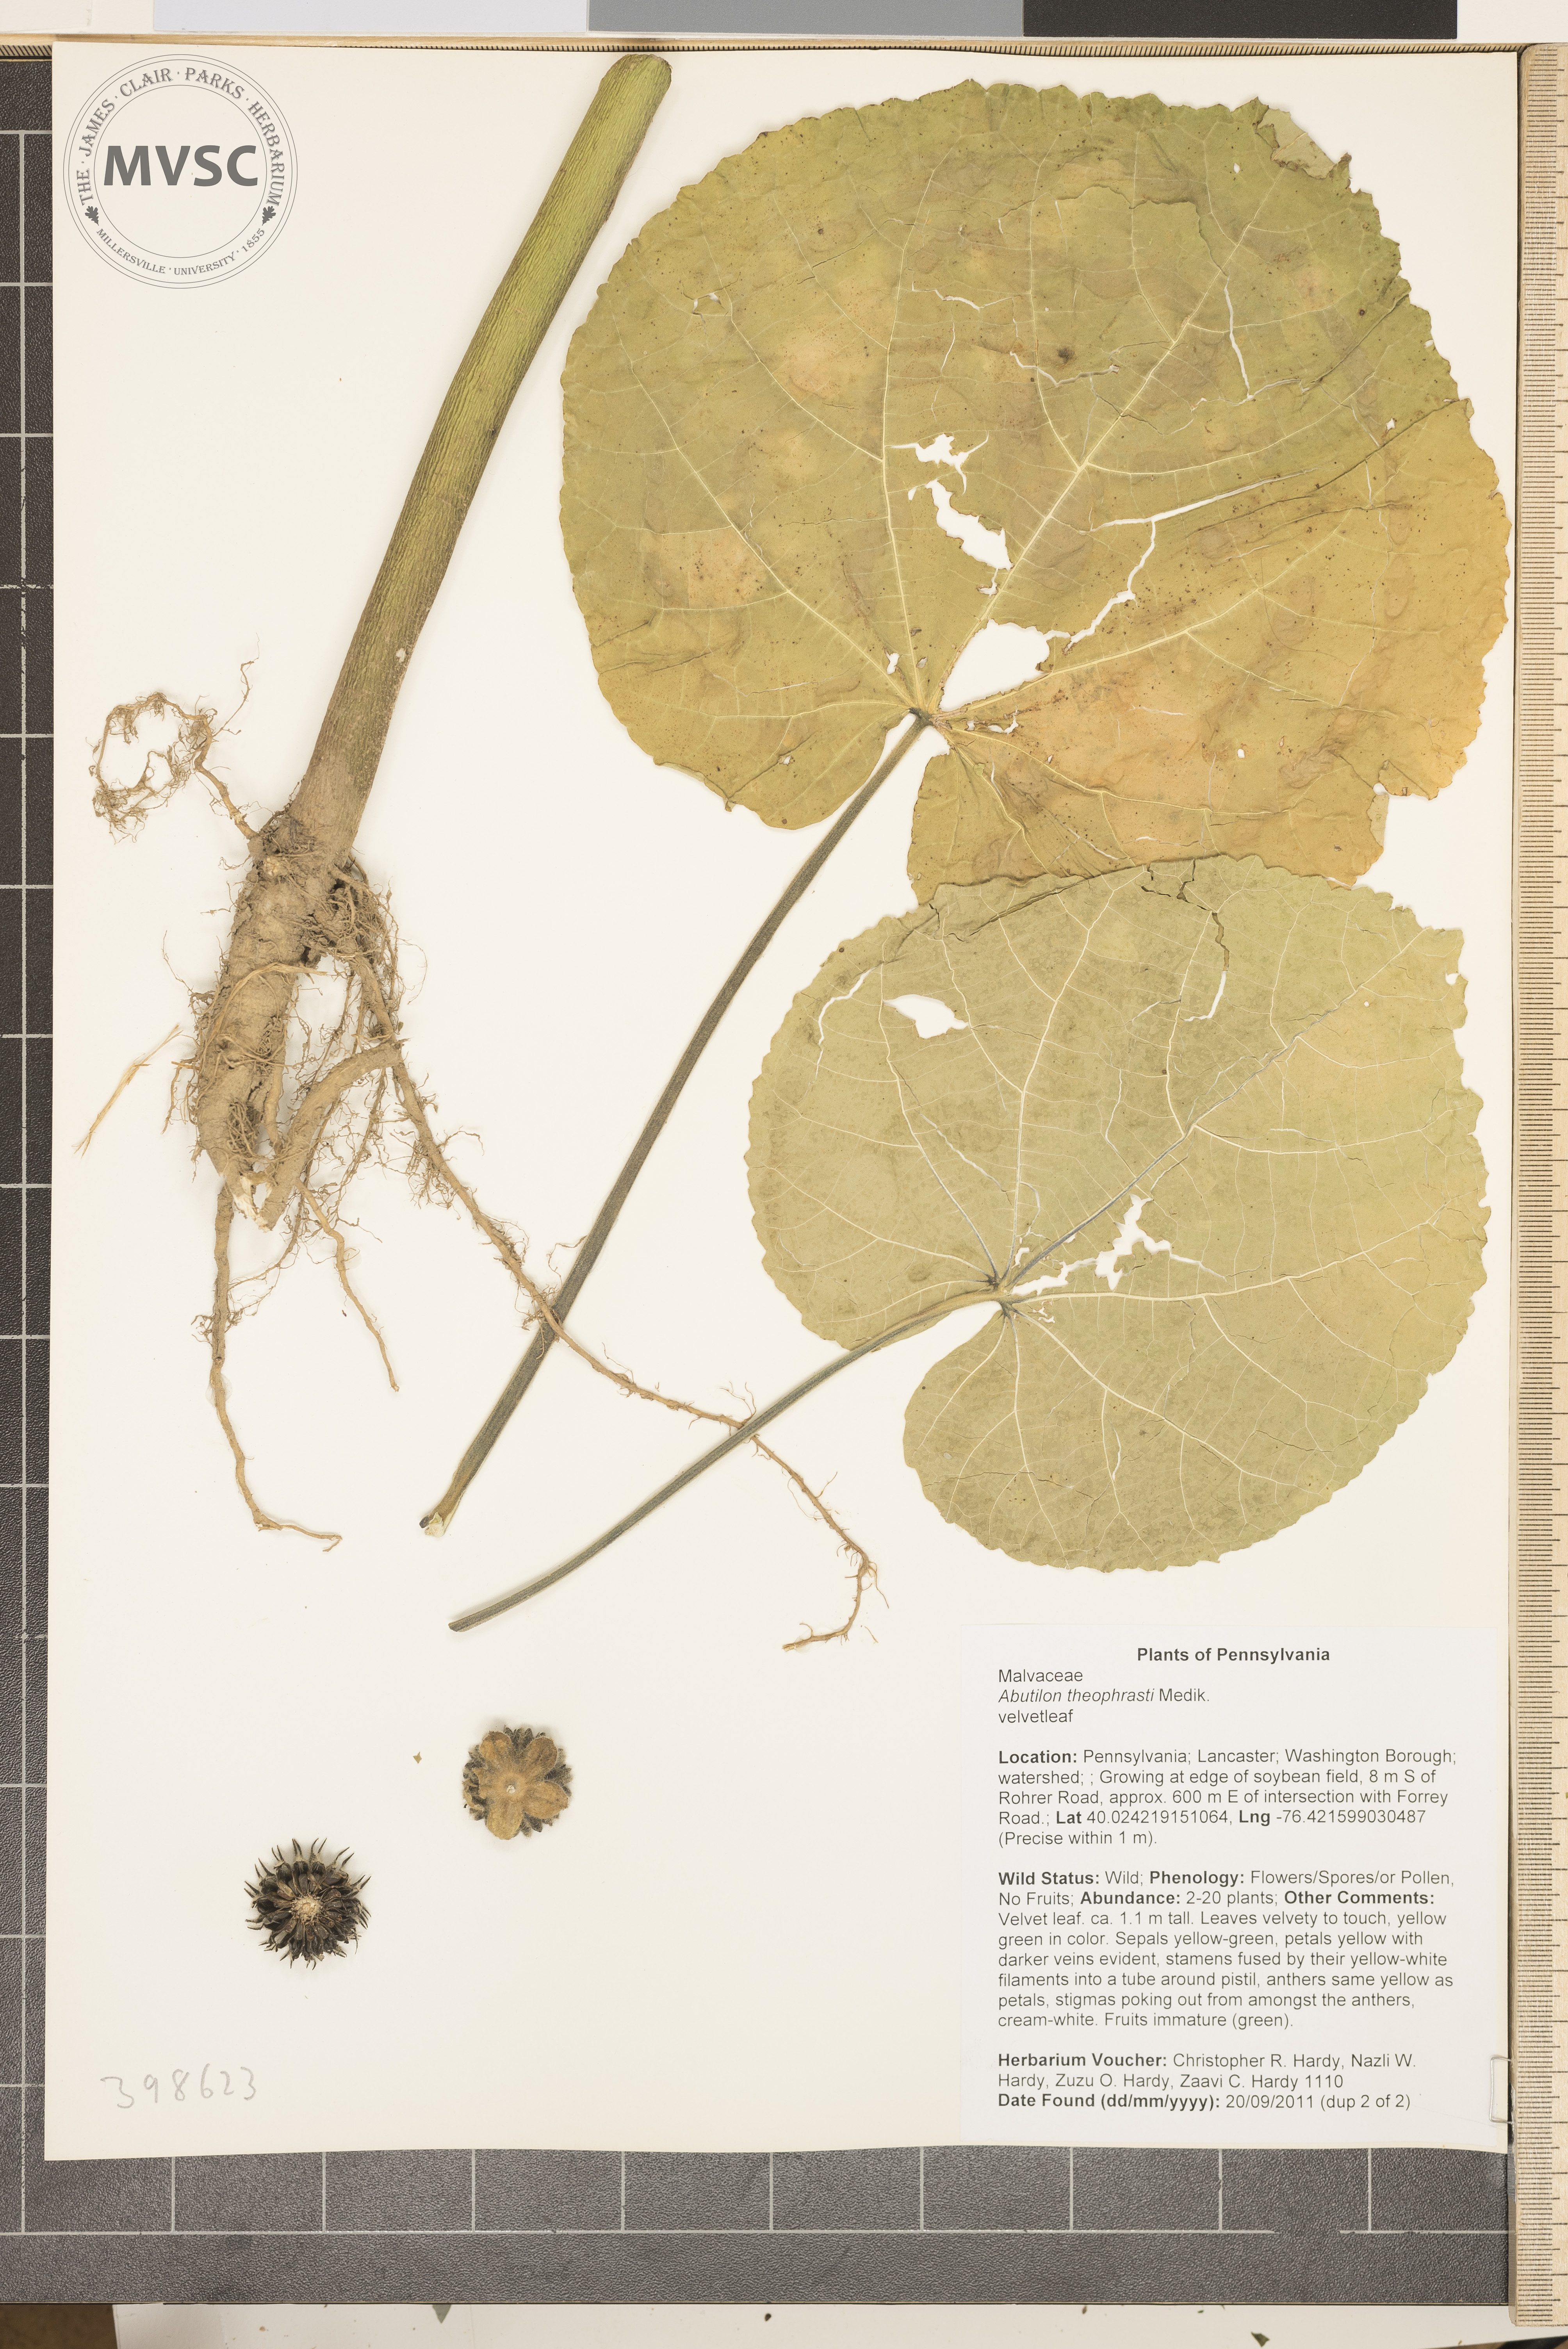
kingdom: Plantae
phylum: Tracheophyta
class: Magnoliopsida
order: Malvales
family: Malvaceae
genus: Abutilon
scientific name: Abutilon theophrasti
